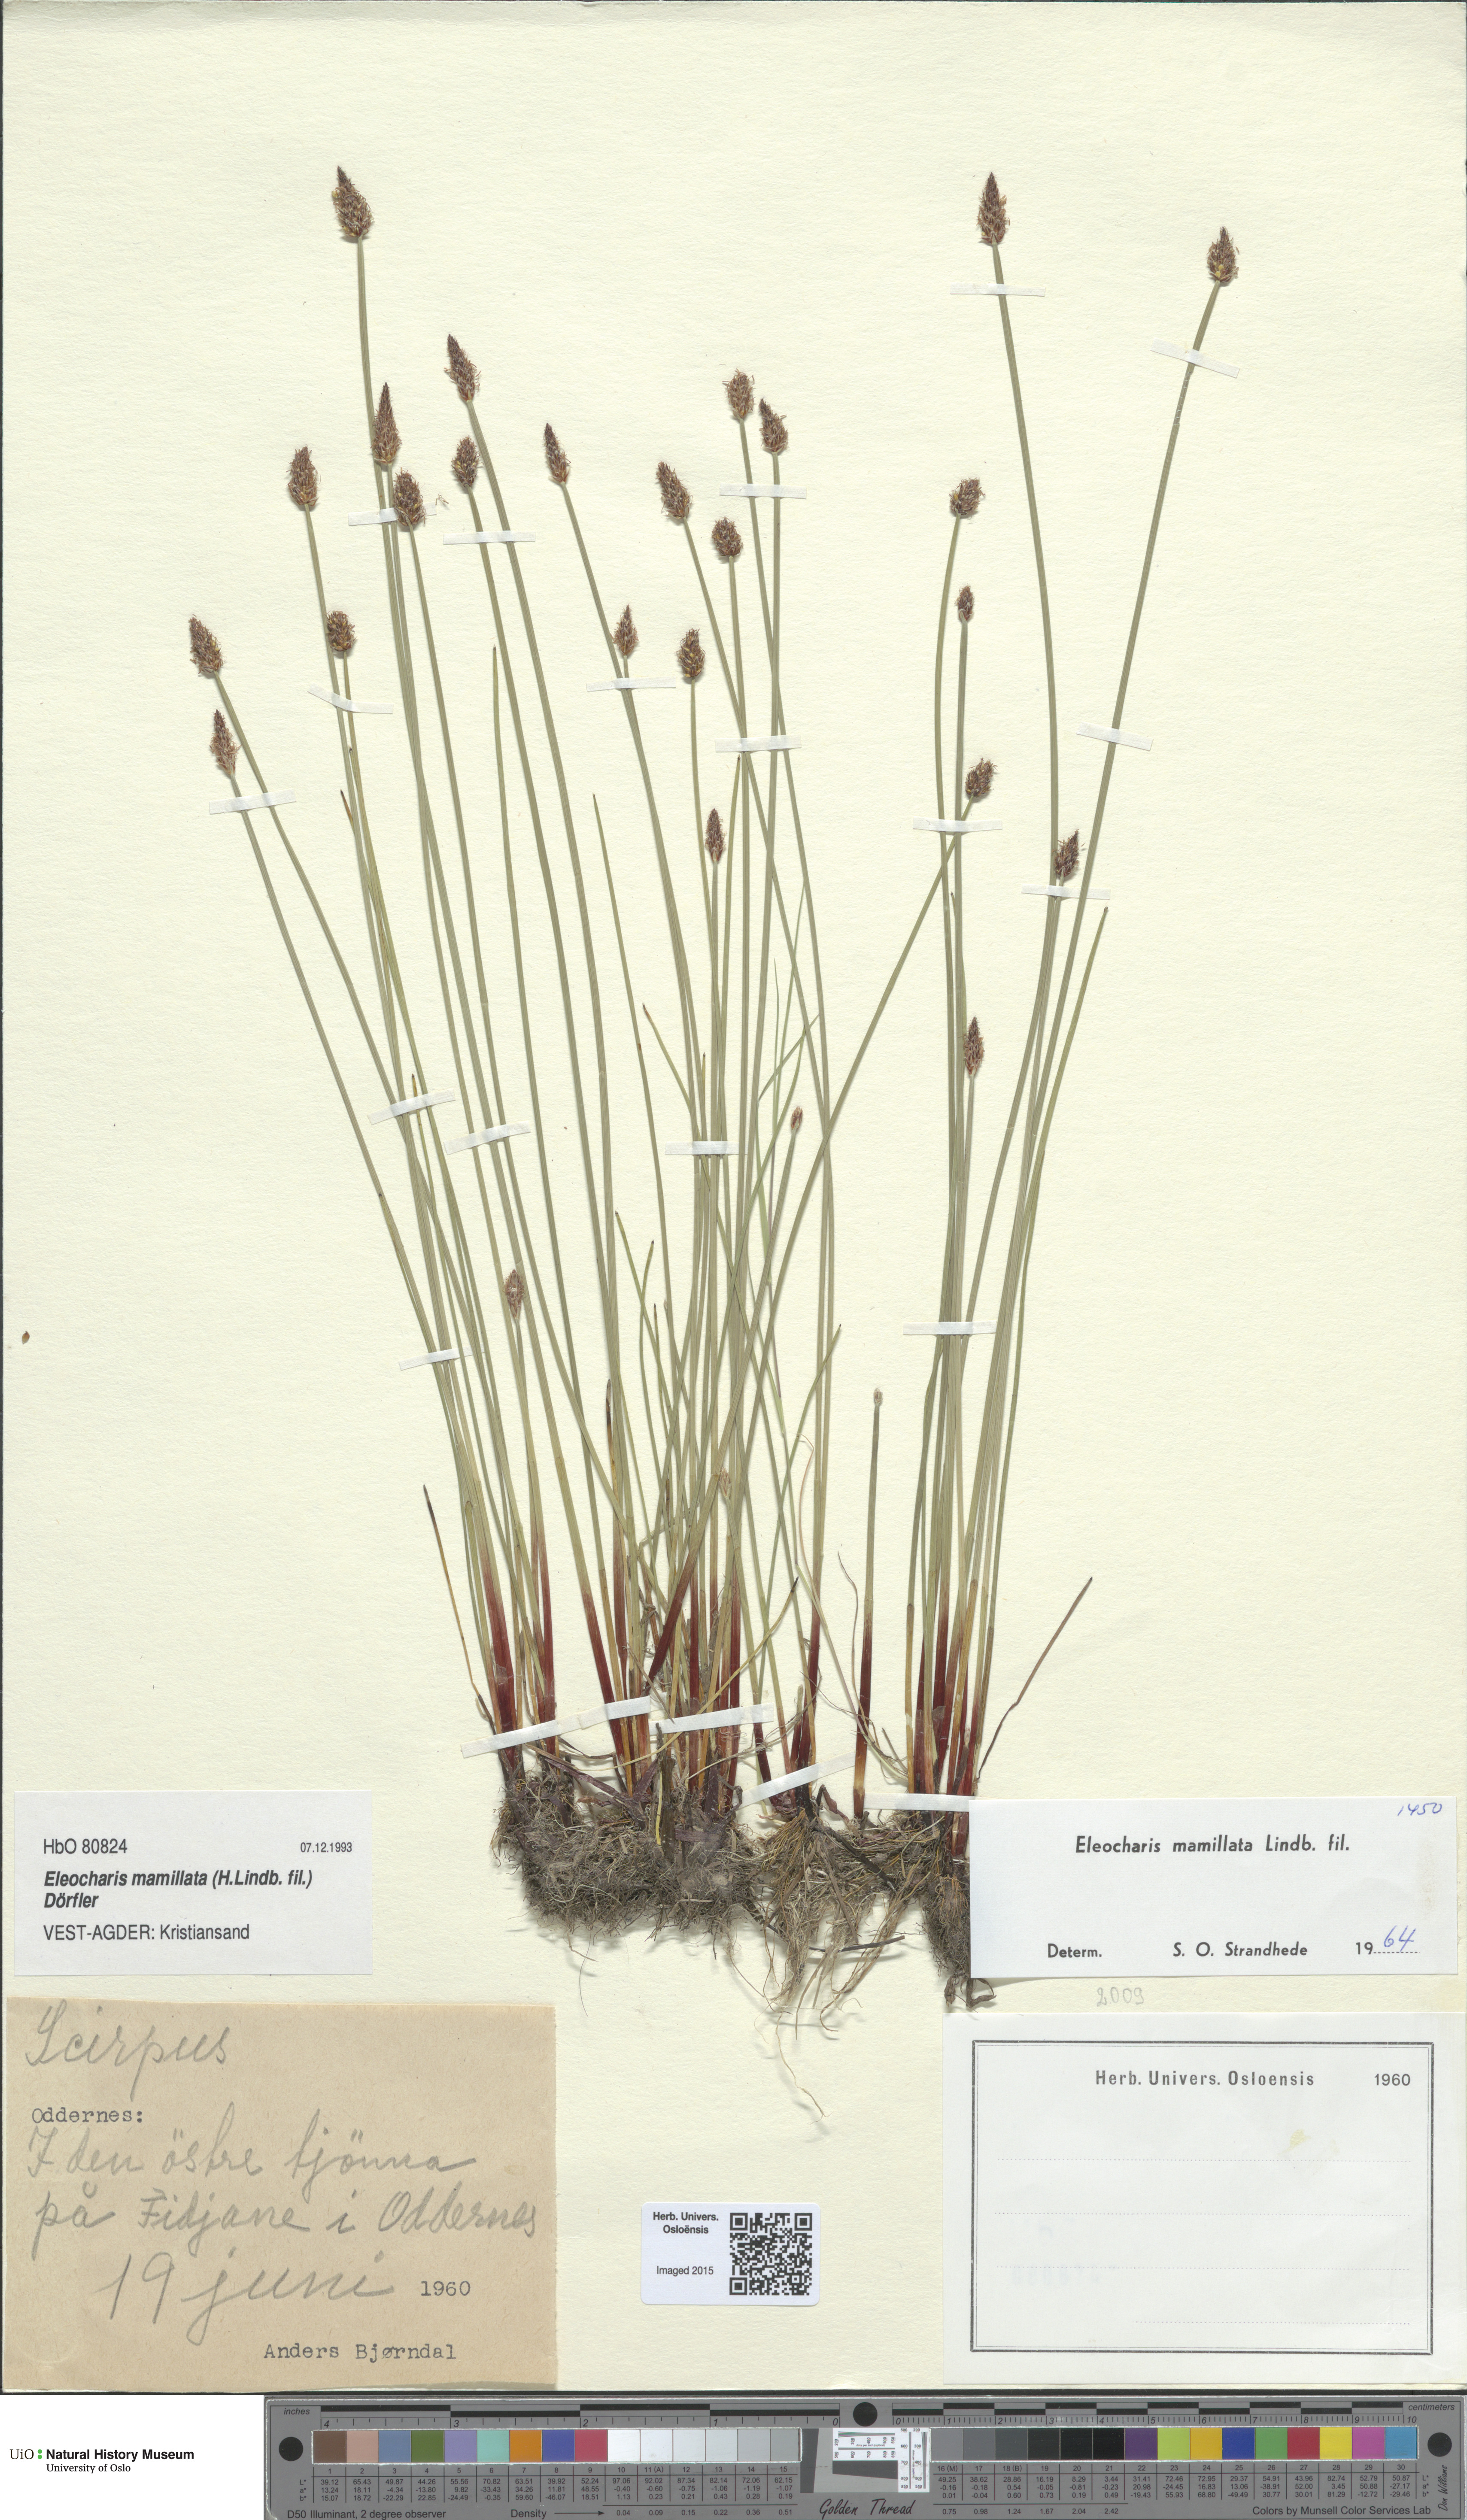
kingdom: Plantae
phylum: Tracheophyta
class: Liliopsida
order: Poales
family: Cyperaceae
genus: Eleocharis
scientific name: Eleocharis mamillata
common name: Northern spike-rush
